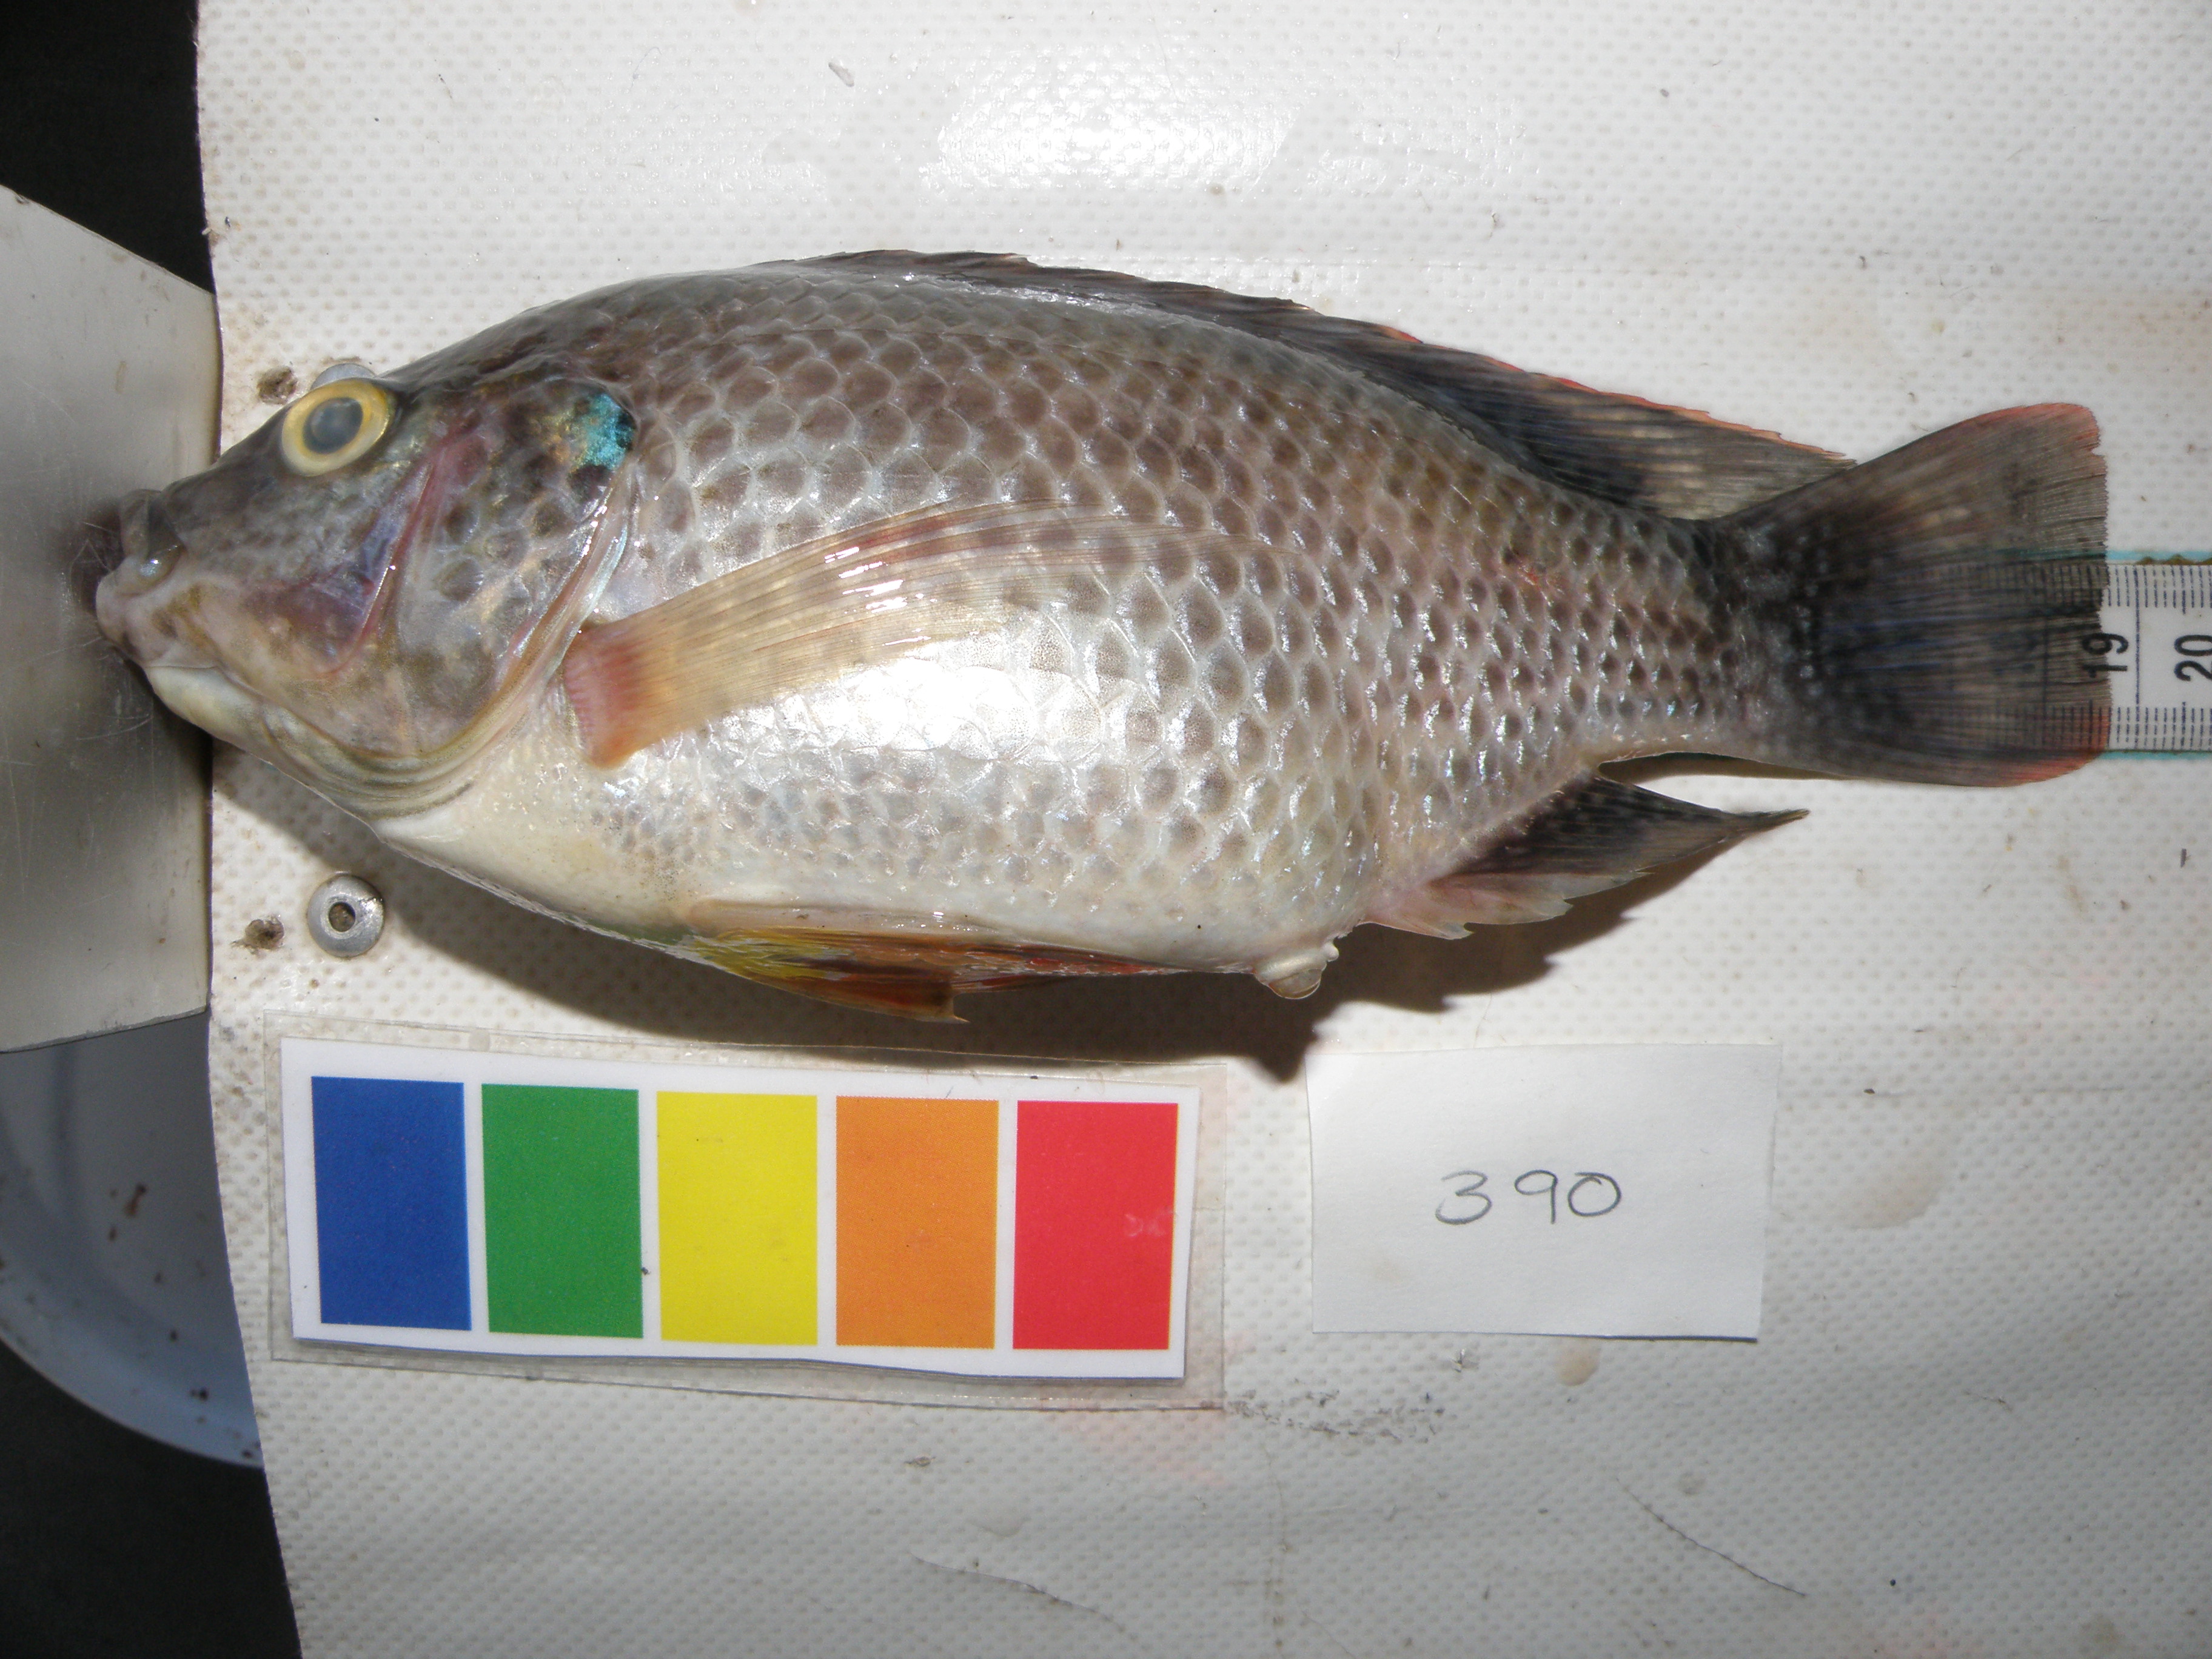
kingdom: Animalia
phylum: Chordata
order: Perciformes
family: Sparidae
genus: Acanthopagrus
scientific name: Acanthopagrus berda
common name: Picnic seabream
